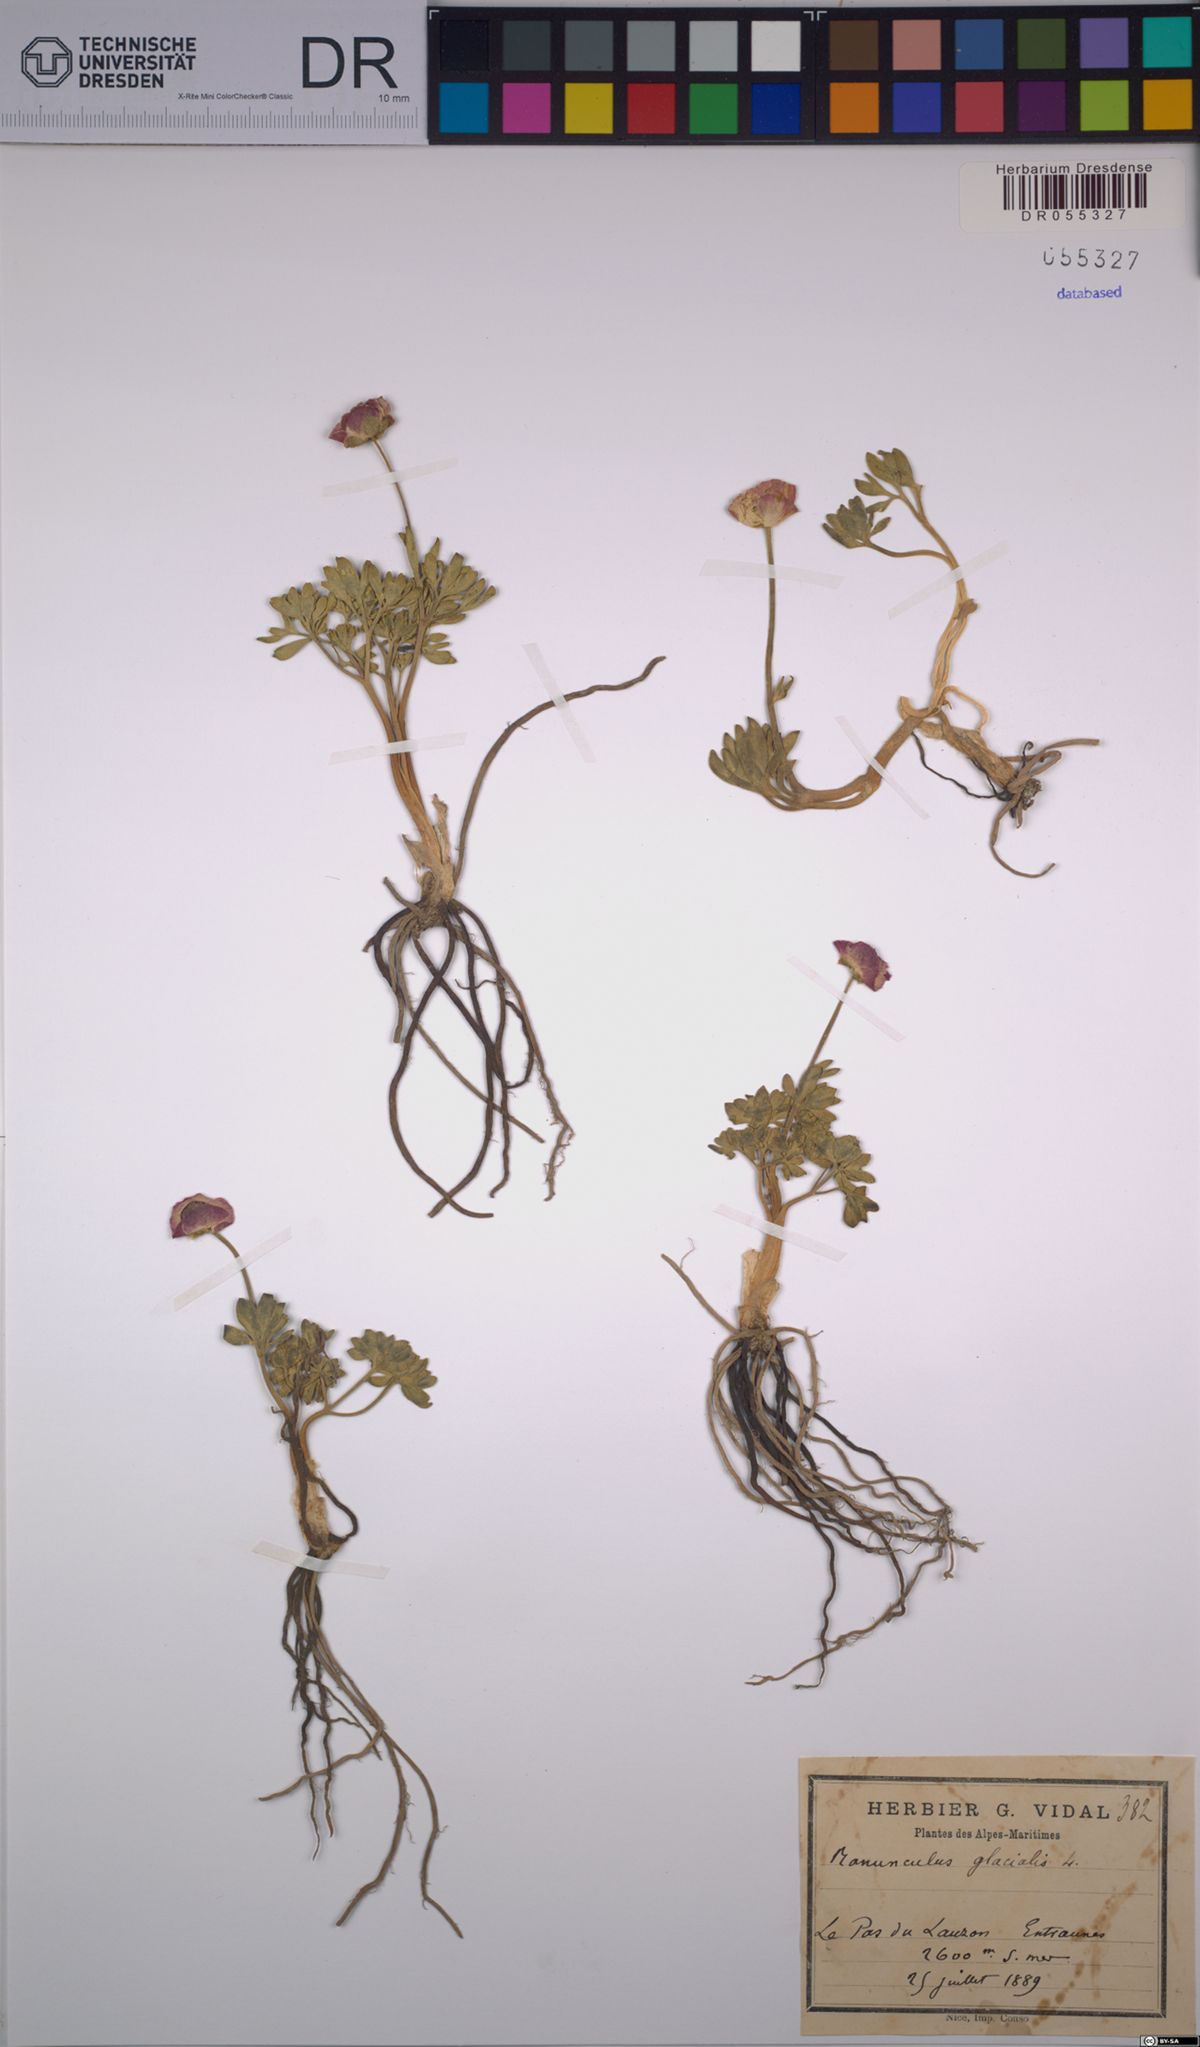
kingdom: Plantae
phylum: Tracheophyta
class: Magnoliopsida
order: Ranunculales
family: Ranunculaceae
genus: Ranunculus
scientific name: Ranunculus glacialis
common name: Glacier buttercup
